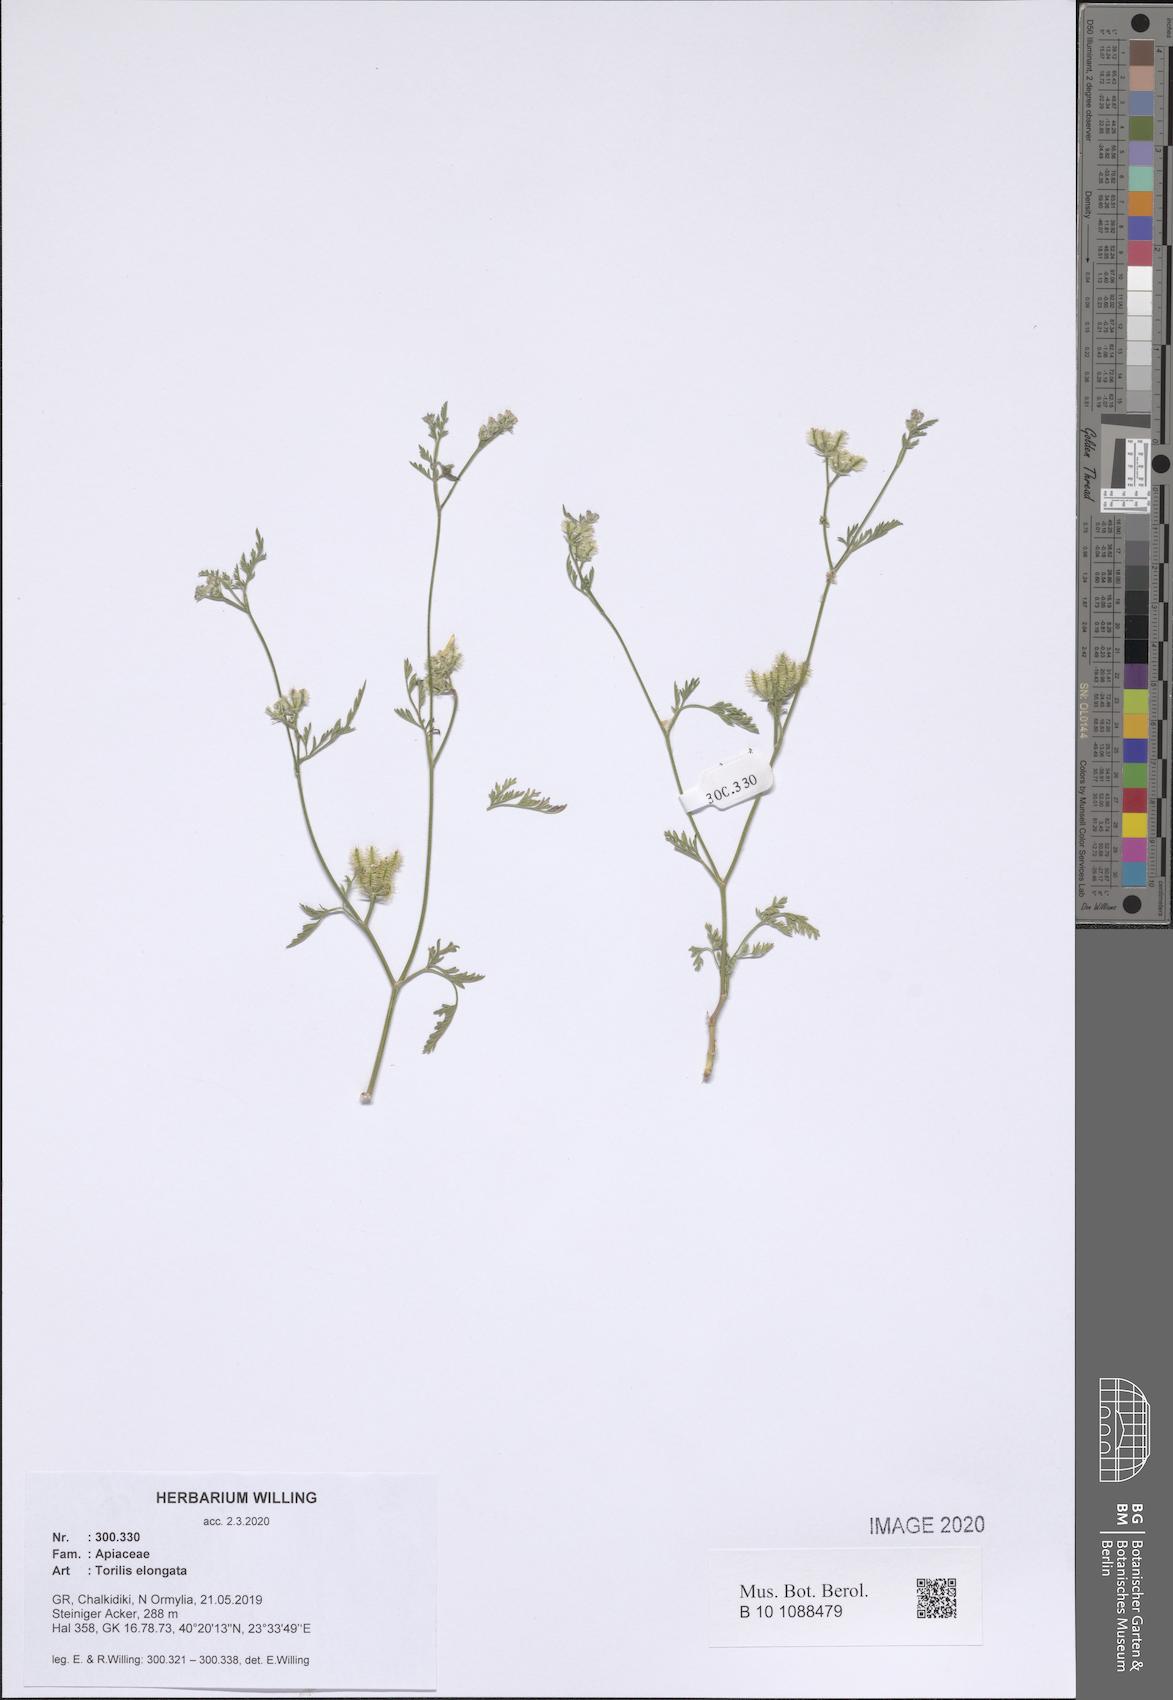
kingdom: Plantae
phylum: Tracheophyta
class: Magnoliopsida
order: Apiales
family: Apiaceae
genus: Torilis
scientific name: Torilis elongata
